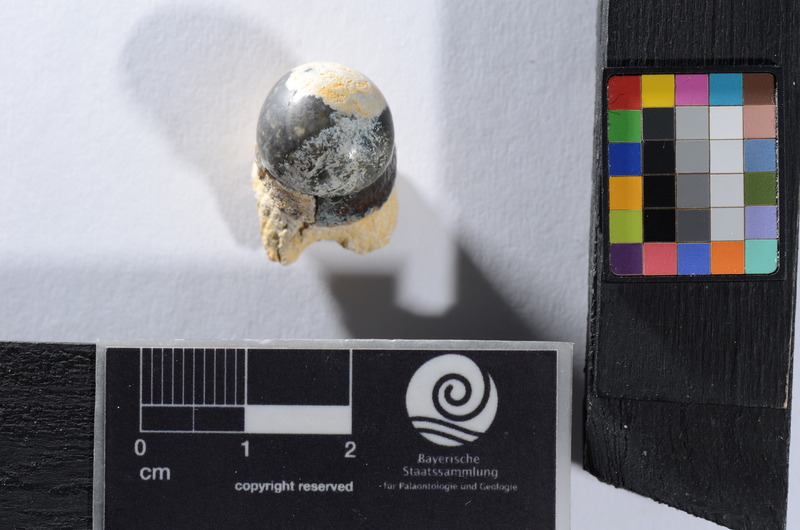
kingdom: Animalia
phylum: Chordata
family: Pycnodontidae
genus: Sphaerodus
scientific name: Sphaerodus gigas
